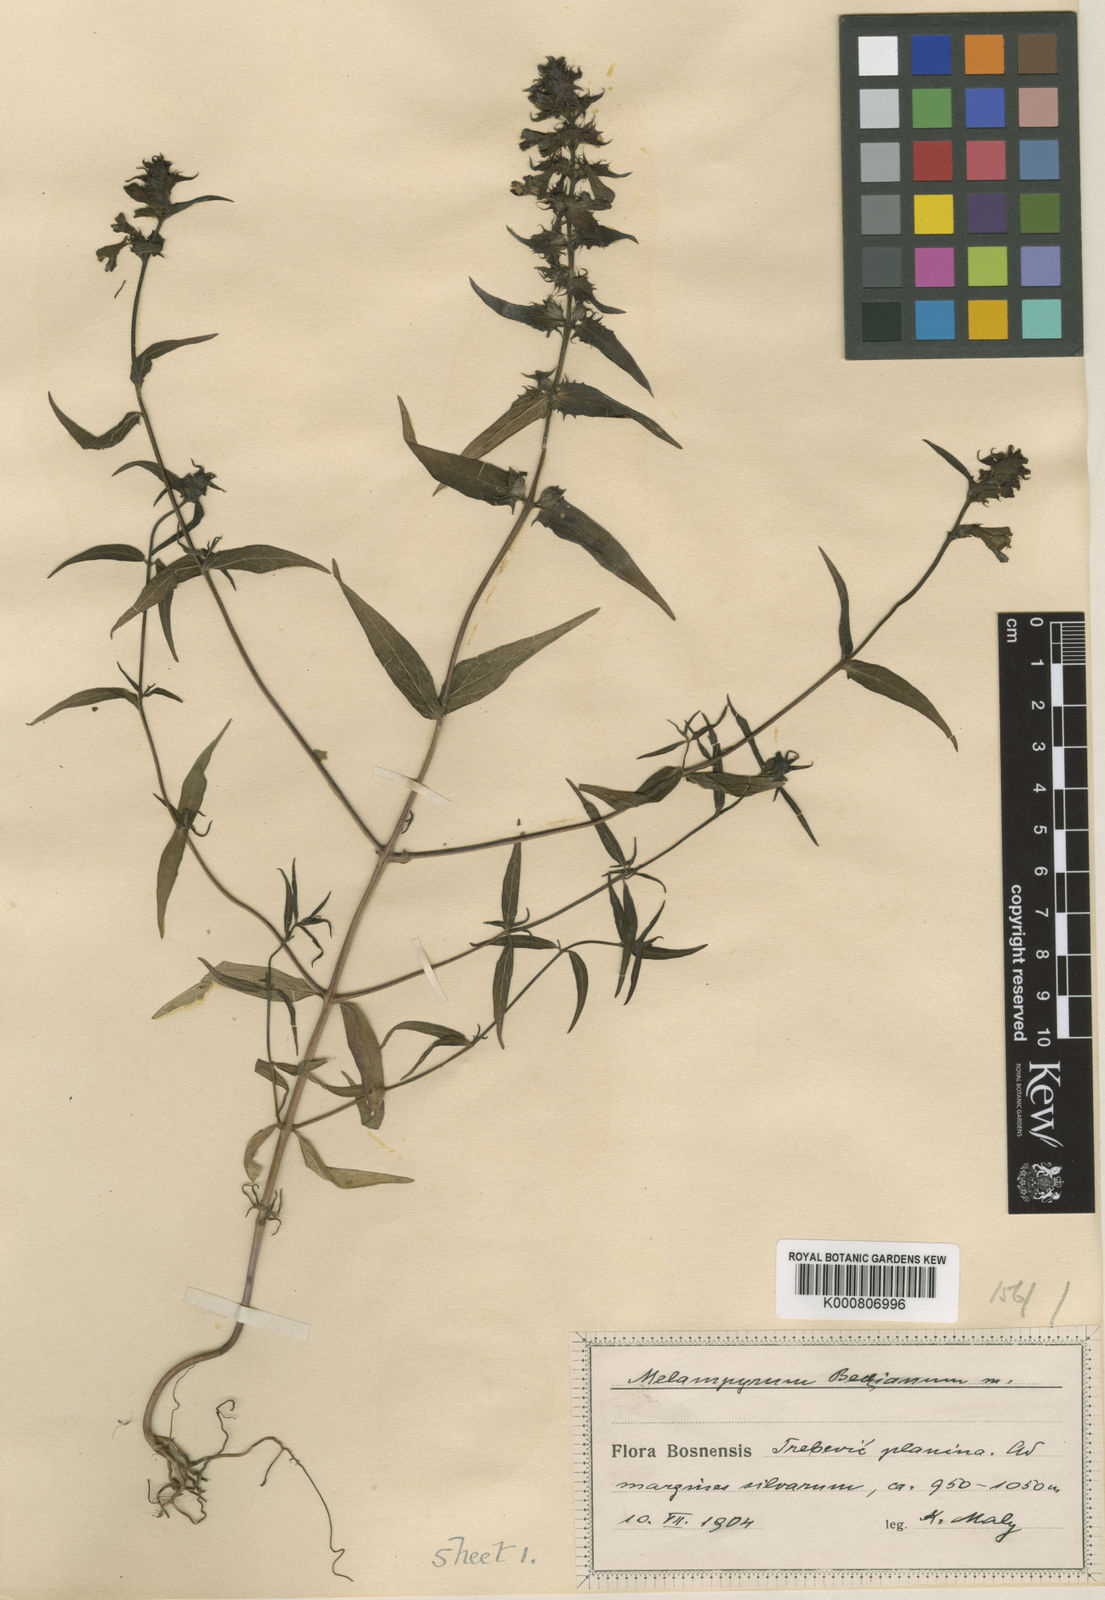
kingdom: Plantae
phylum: Tracheophyta
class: Magnoliopsida
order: Lamiales
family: Orobanchaceae
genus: Melampyrum
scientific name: Melampyrum hoermannianum
